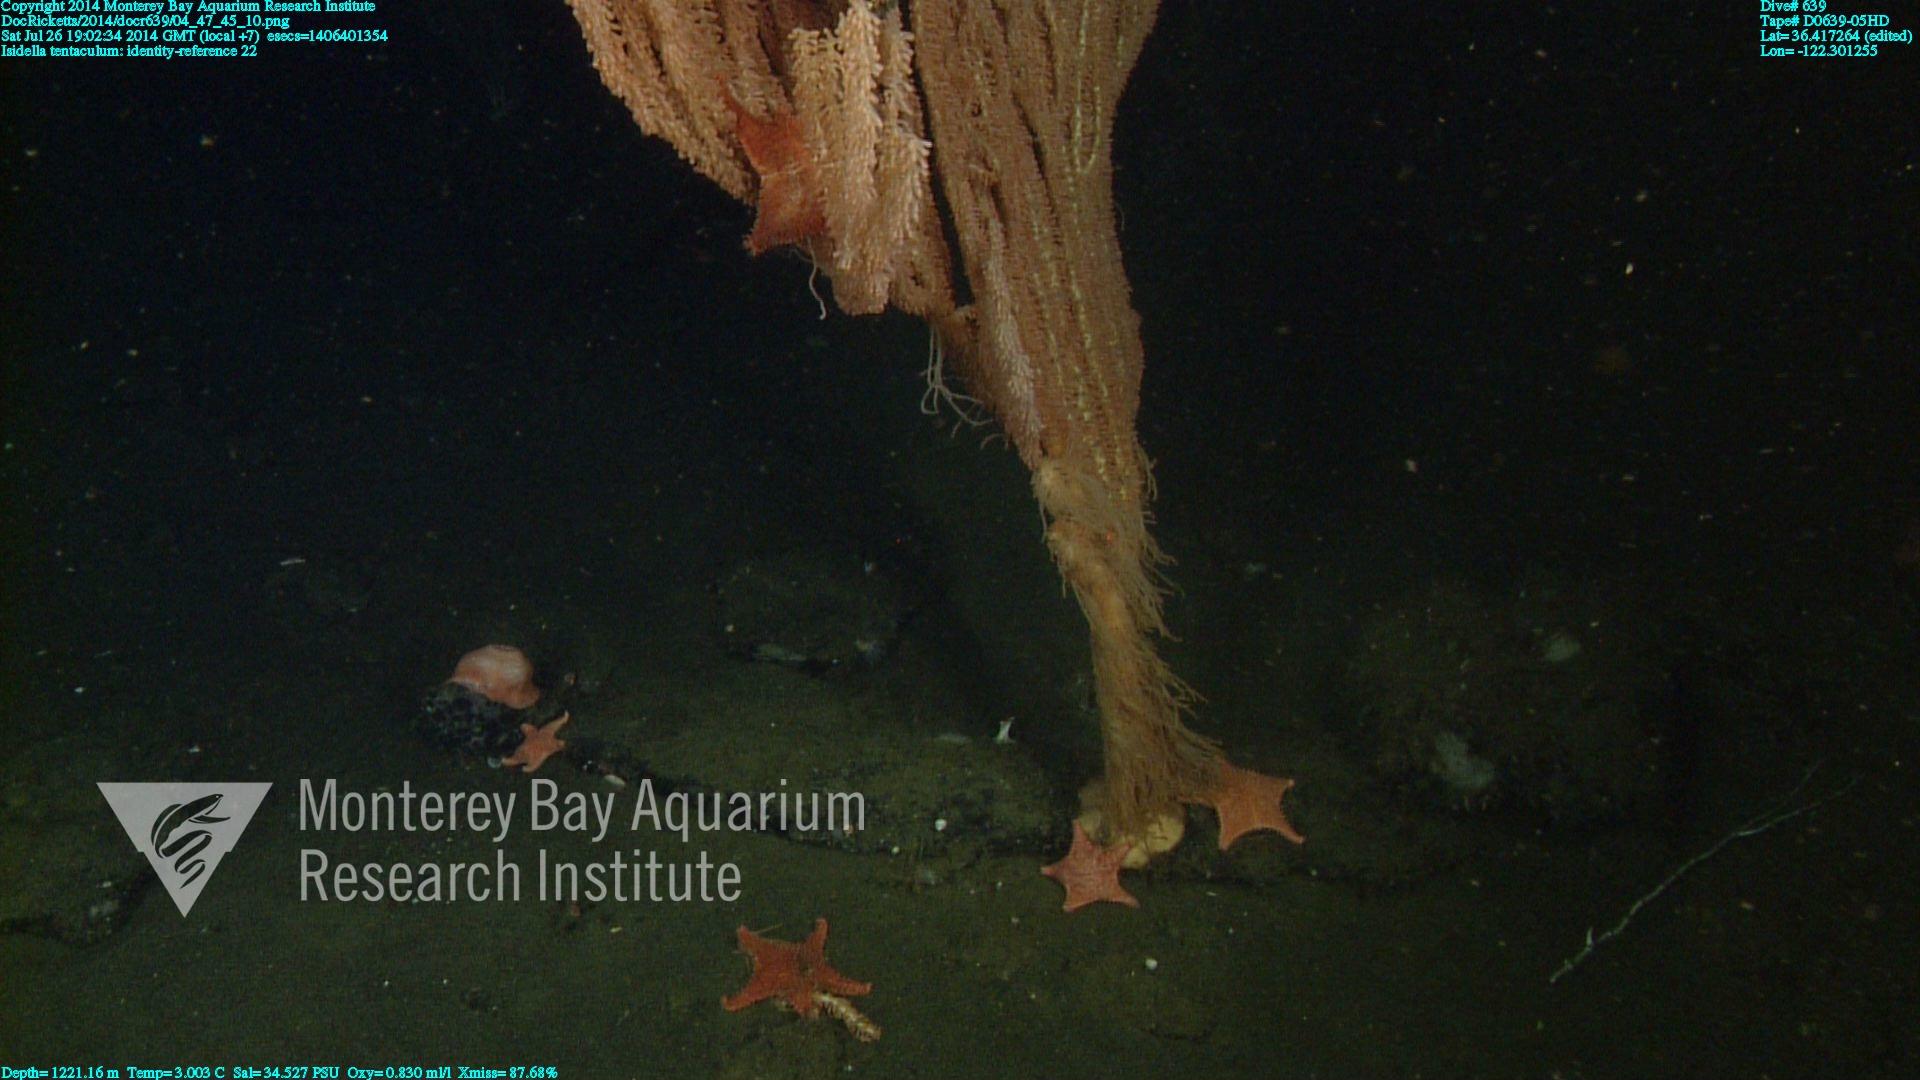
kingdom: Animalia
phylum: Cnidaria
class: Anthozoa
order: Scleralcyonacea
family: Keratoisididae
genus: Isidella
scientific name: Isidella tentaculum
